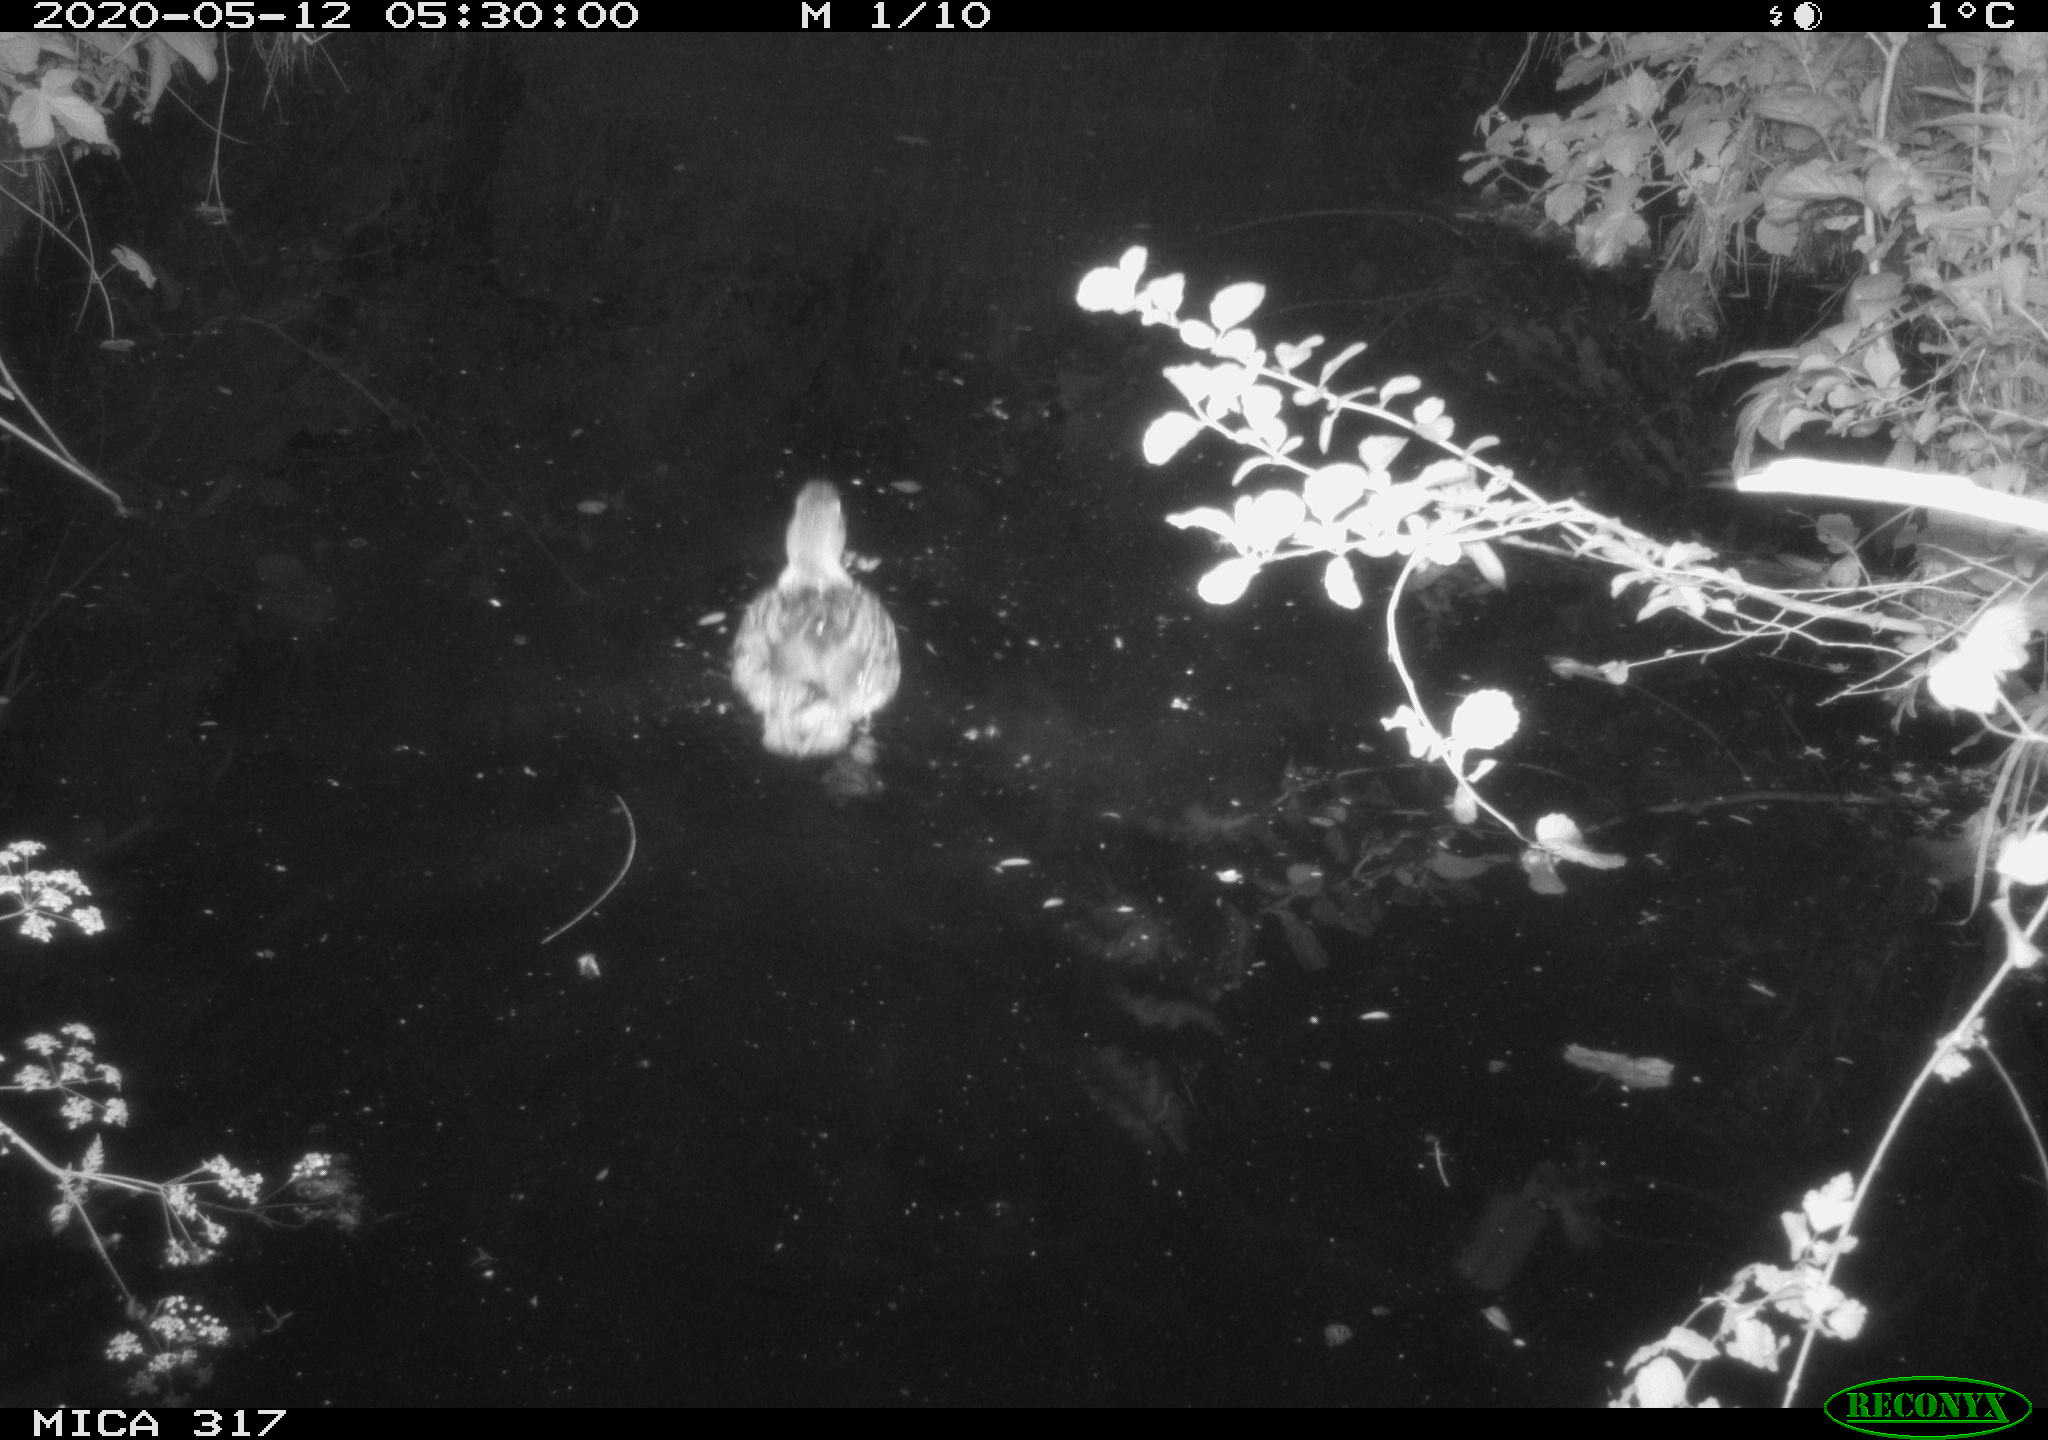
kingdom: Animalia
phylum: Chordata
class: Aves
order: Anseriformes
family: Anatidae
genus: Anas
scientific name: Anas platyrhynchos
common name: Mallard
